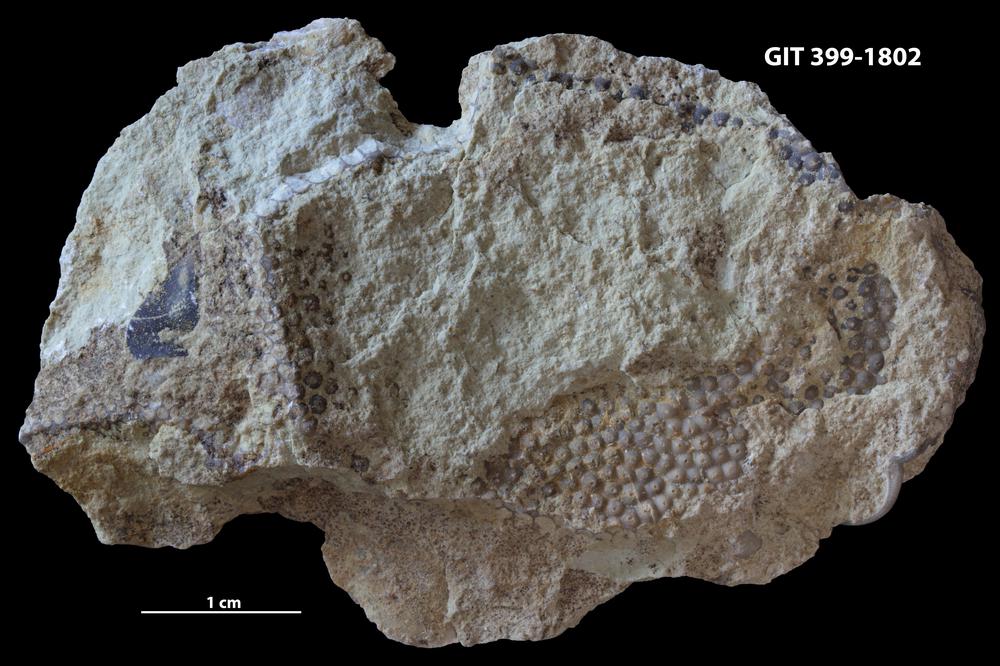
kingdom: Plantae
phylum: Chlorophyta
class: Ulvophyceae
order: Cyclocrinales
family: Cyclocrinaceae
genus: Mastopora
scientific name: Mastopora concava
